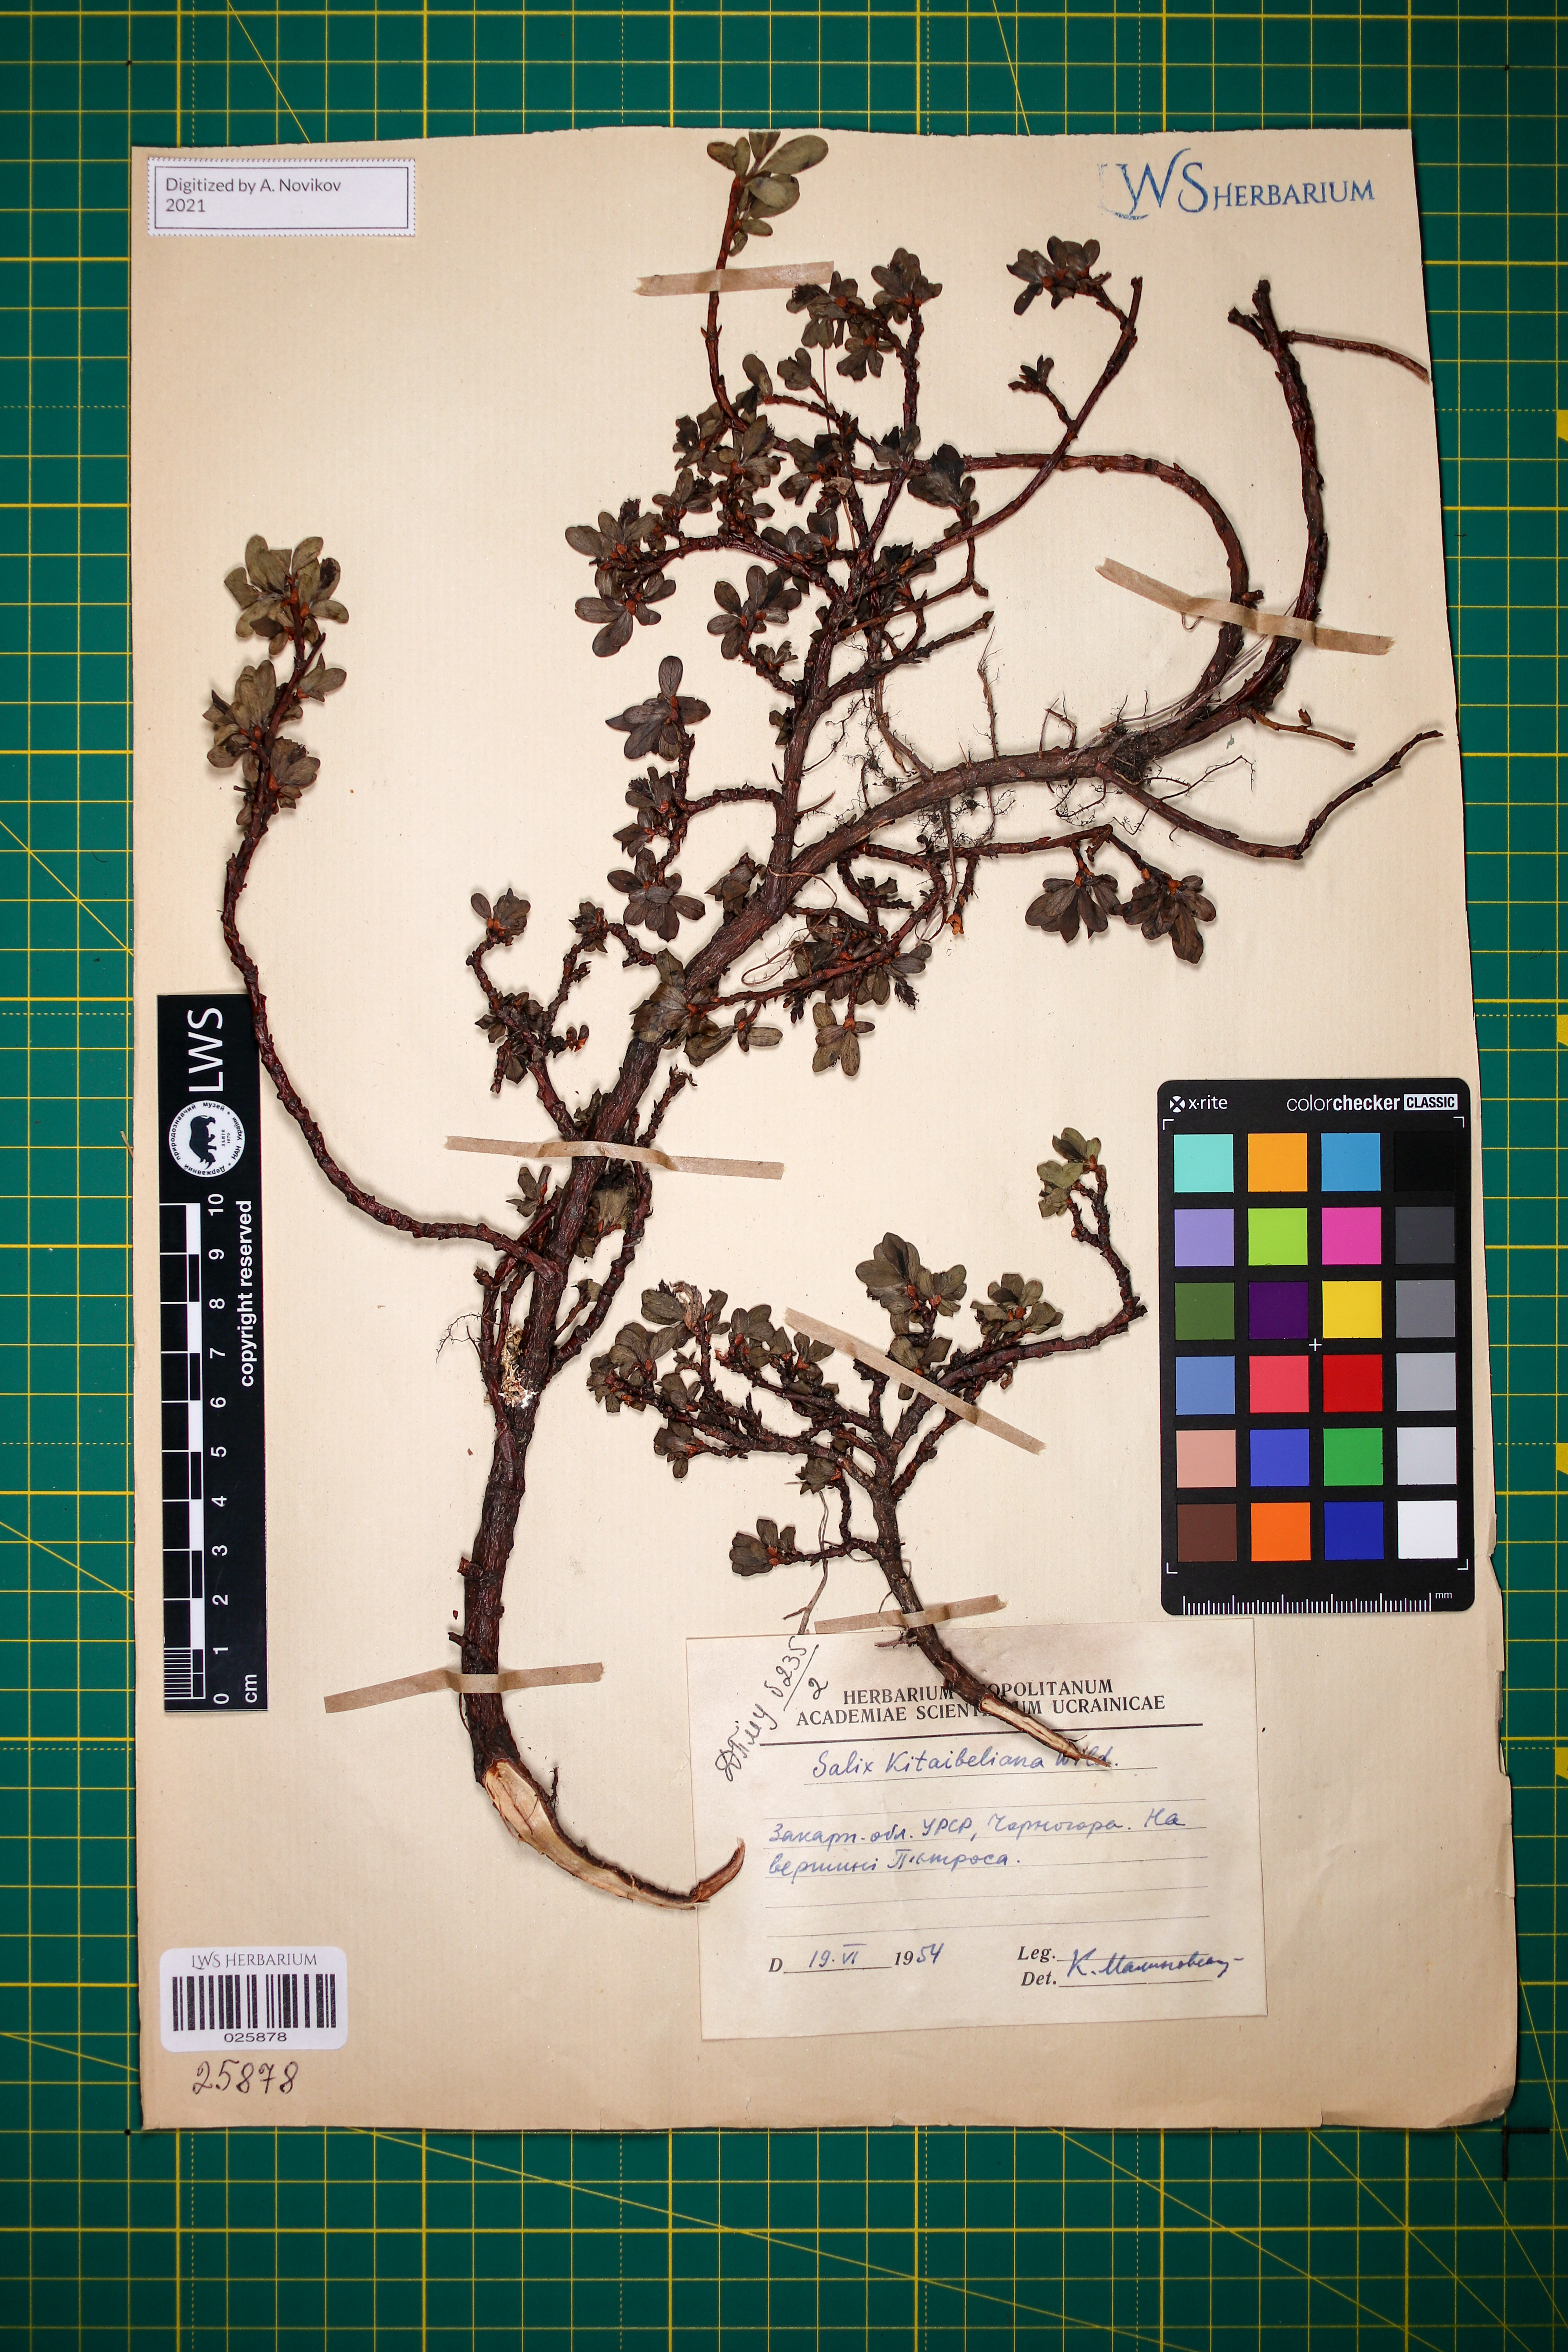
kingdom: Plantae
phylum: Tracheophyta
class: Magnoliopsida
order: Malpighiales
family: Salicaceae
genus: Salix
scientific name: Salix retusa
